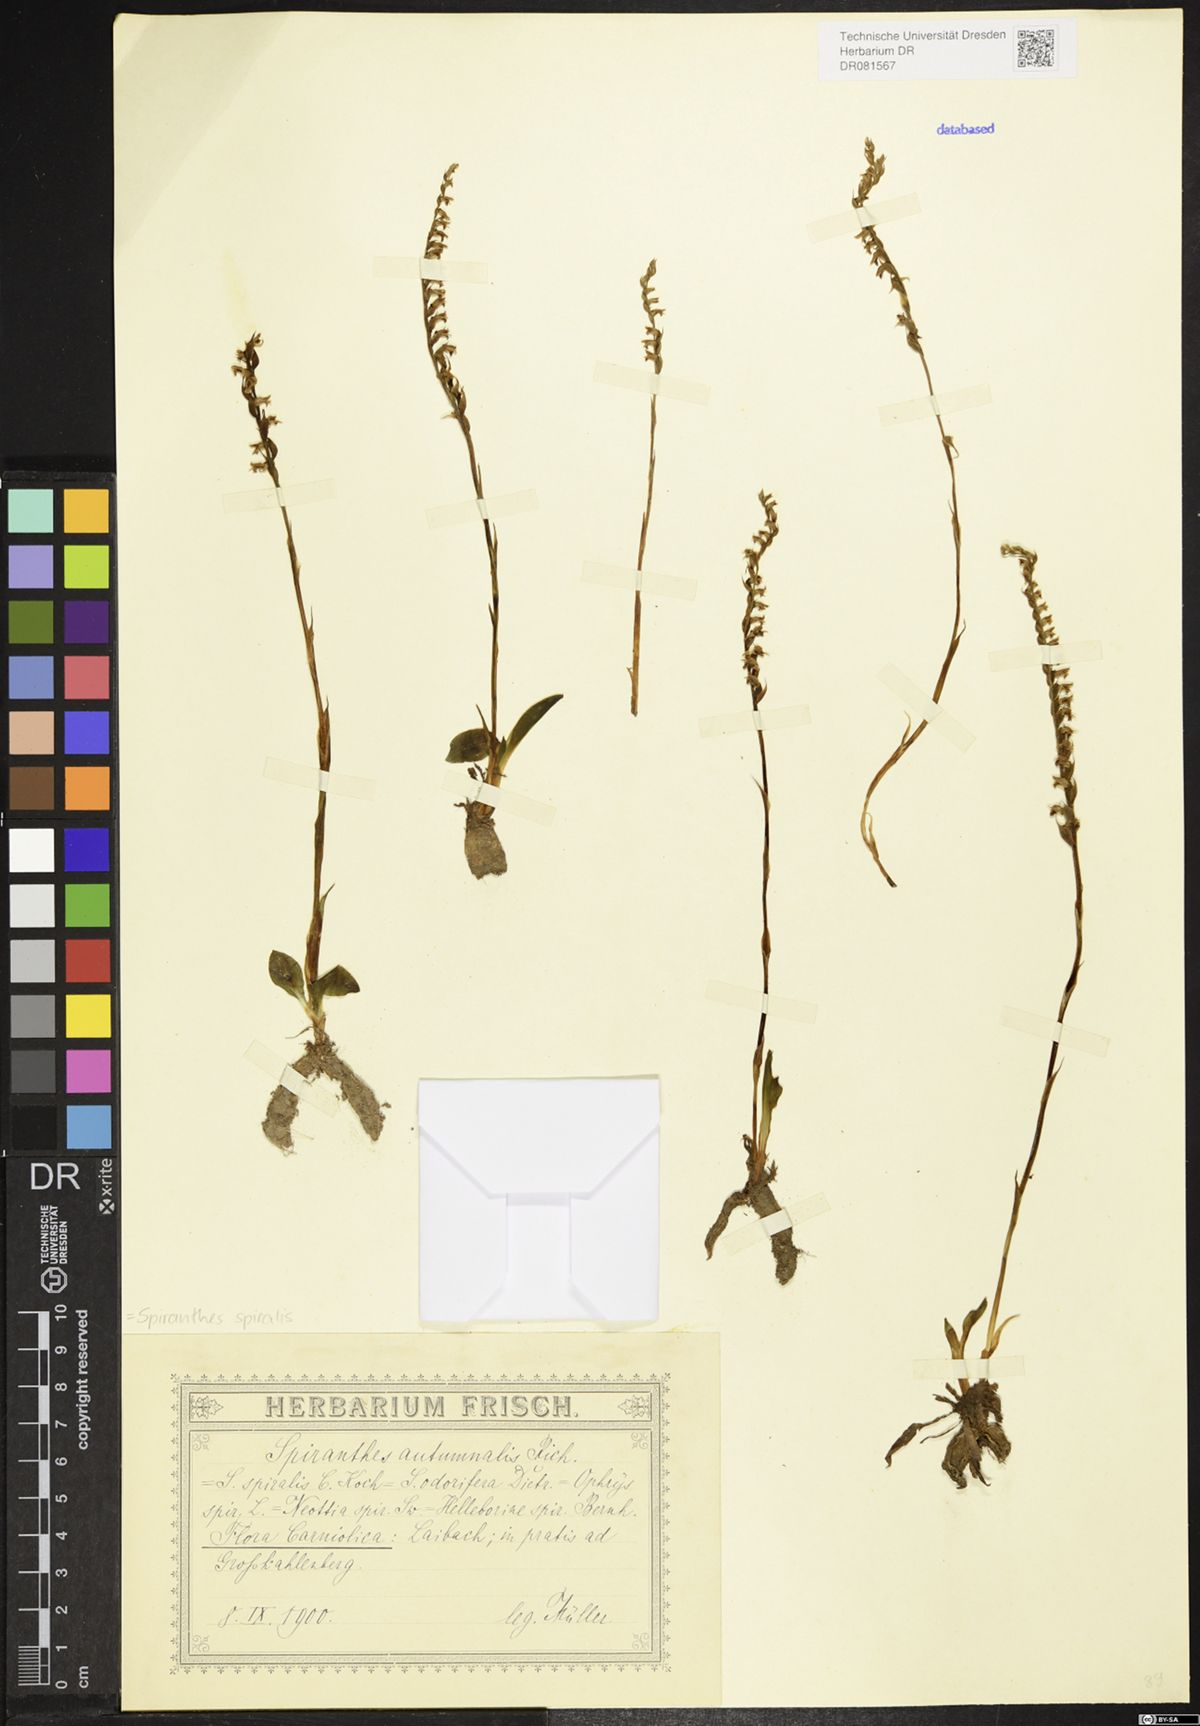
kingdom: Plantae
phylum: Tracheophyta
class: Liliopsida
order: Asparagales
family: Orchidaceae
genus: Spiranthes
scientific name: Spiranthes spiralis
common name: Autumn lady's-tresses
